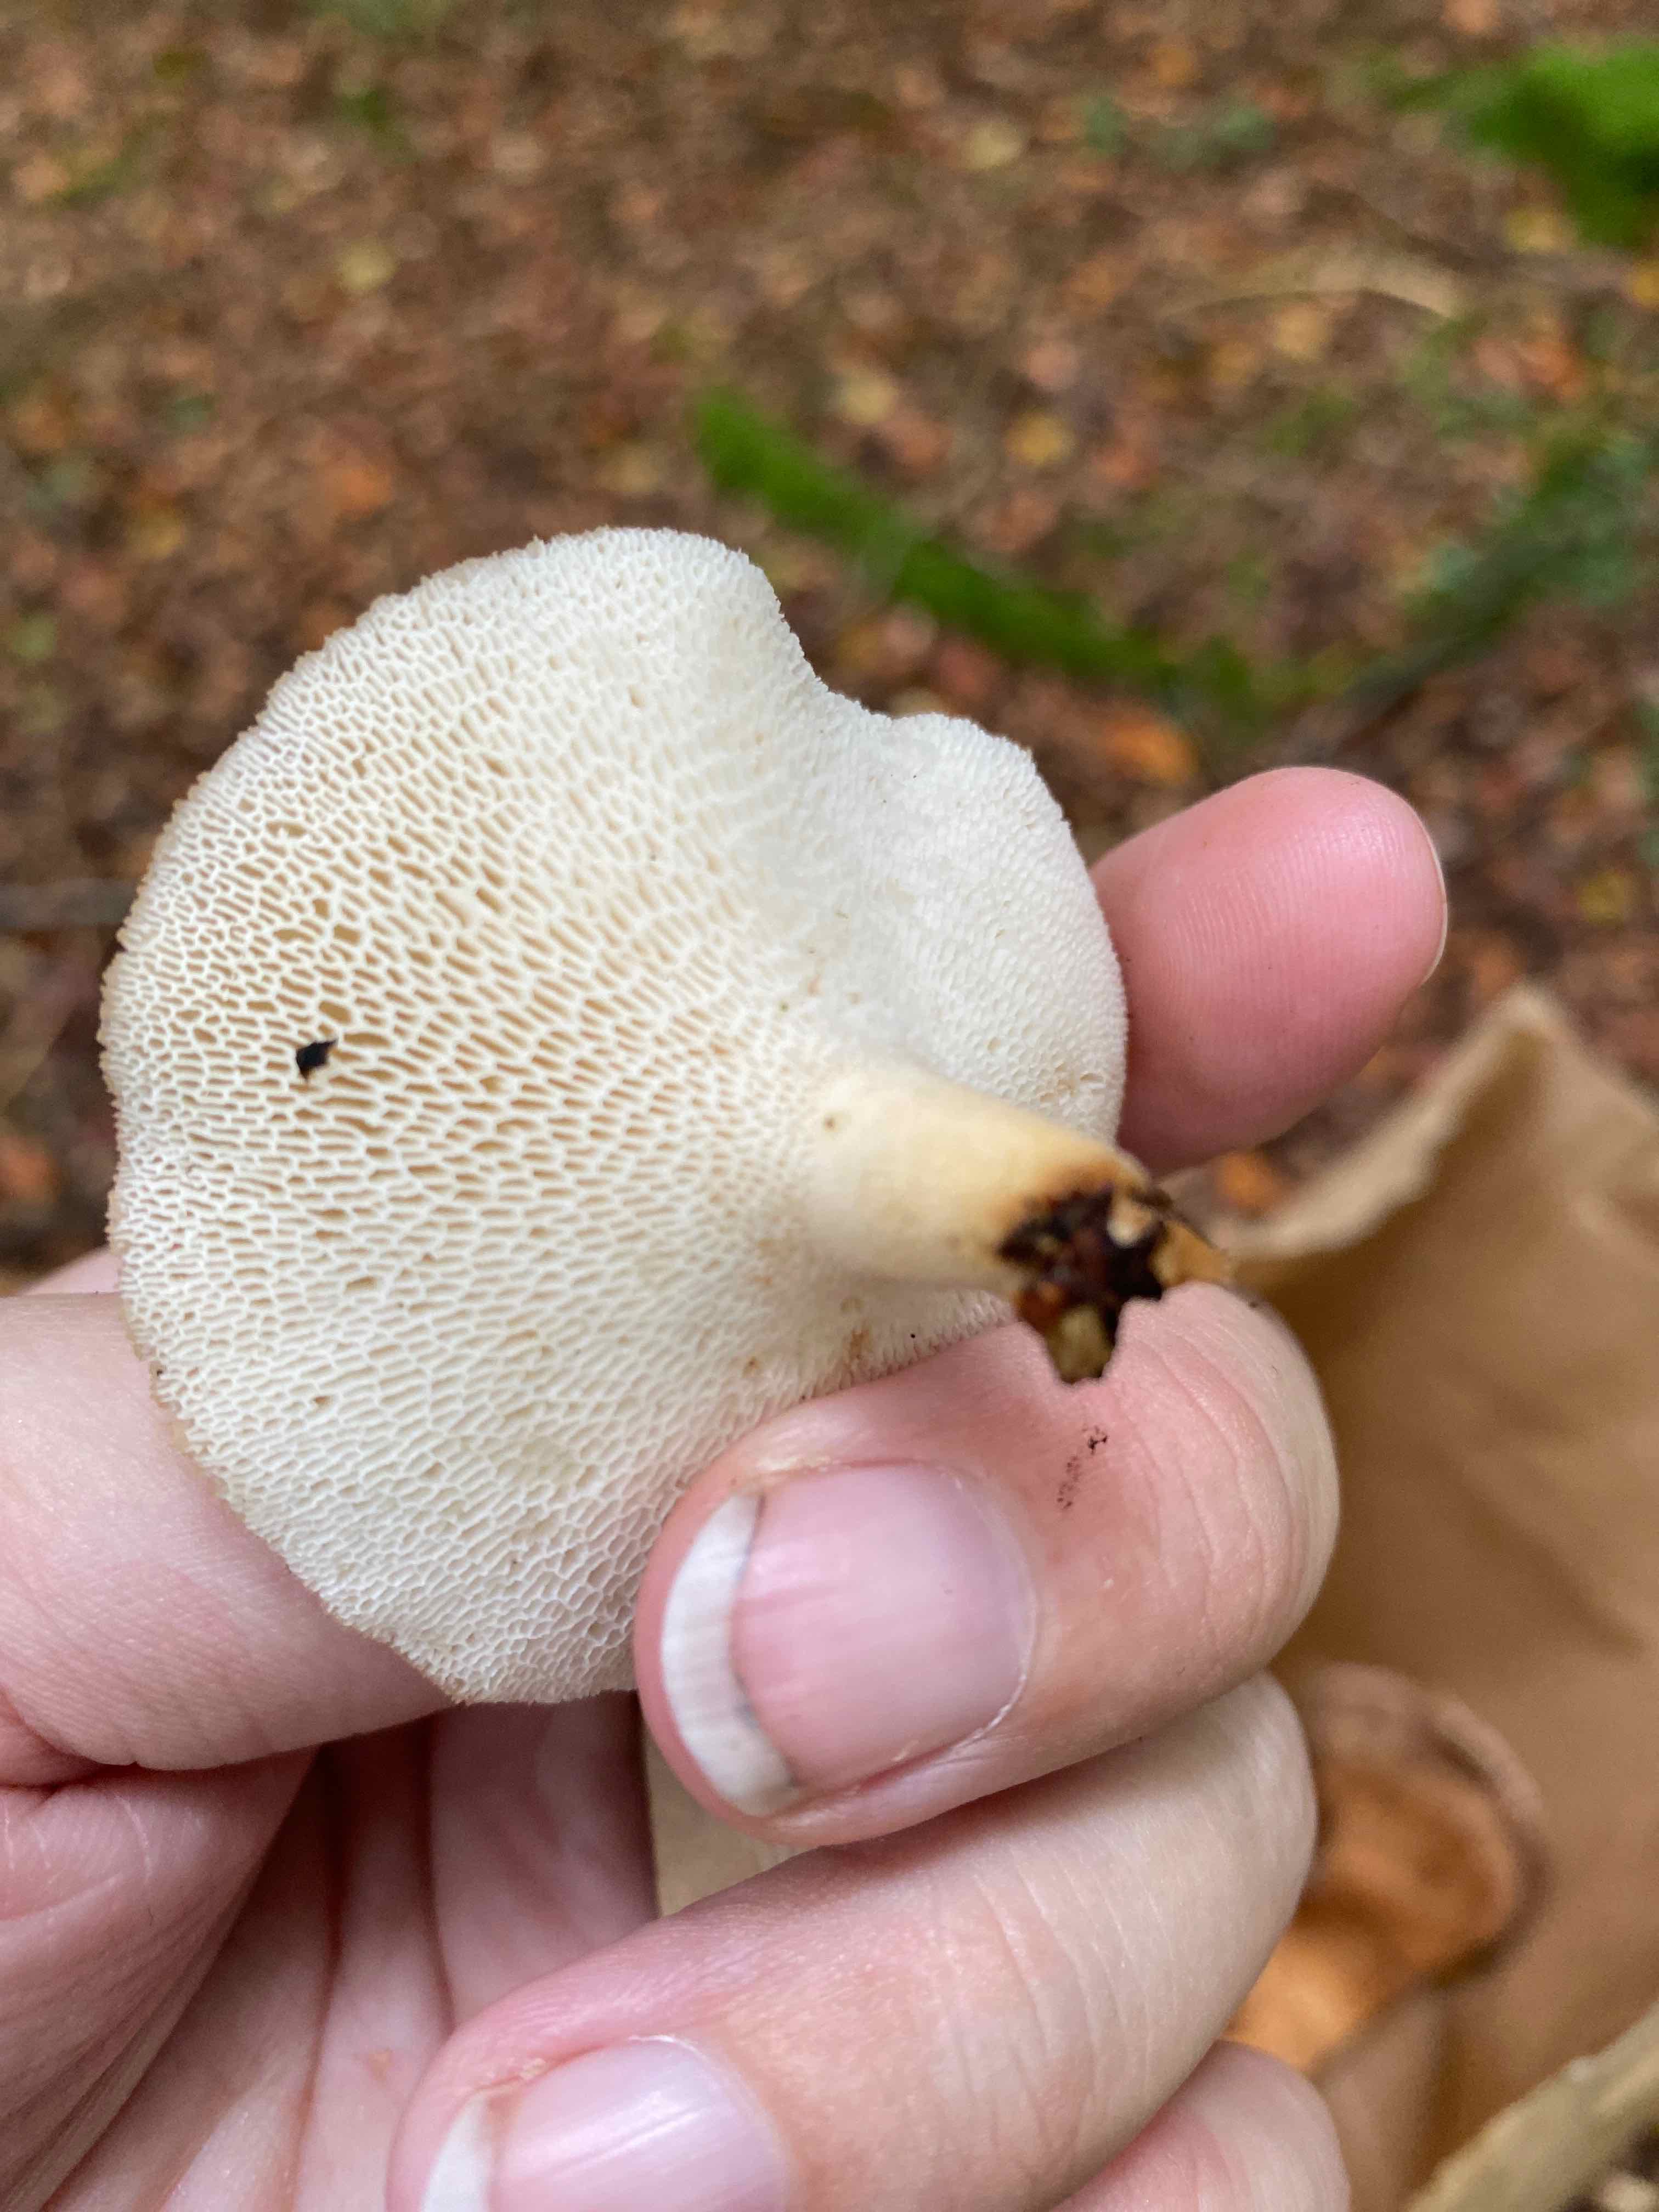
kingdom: Fungi
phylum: Basidiomycota
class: Agaricomycetes
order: Polyporales
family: Polyporaceae
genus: Polyporus
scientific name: Polyporus tuberaster
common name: knoldet stilkporesvamp
